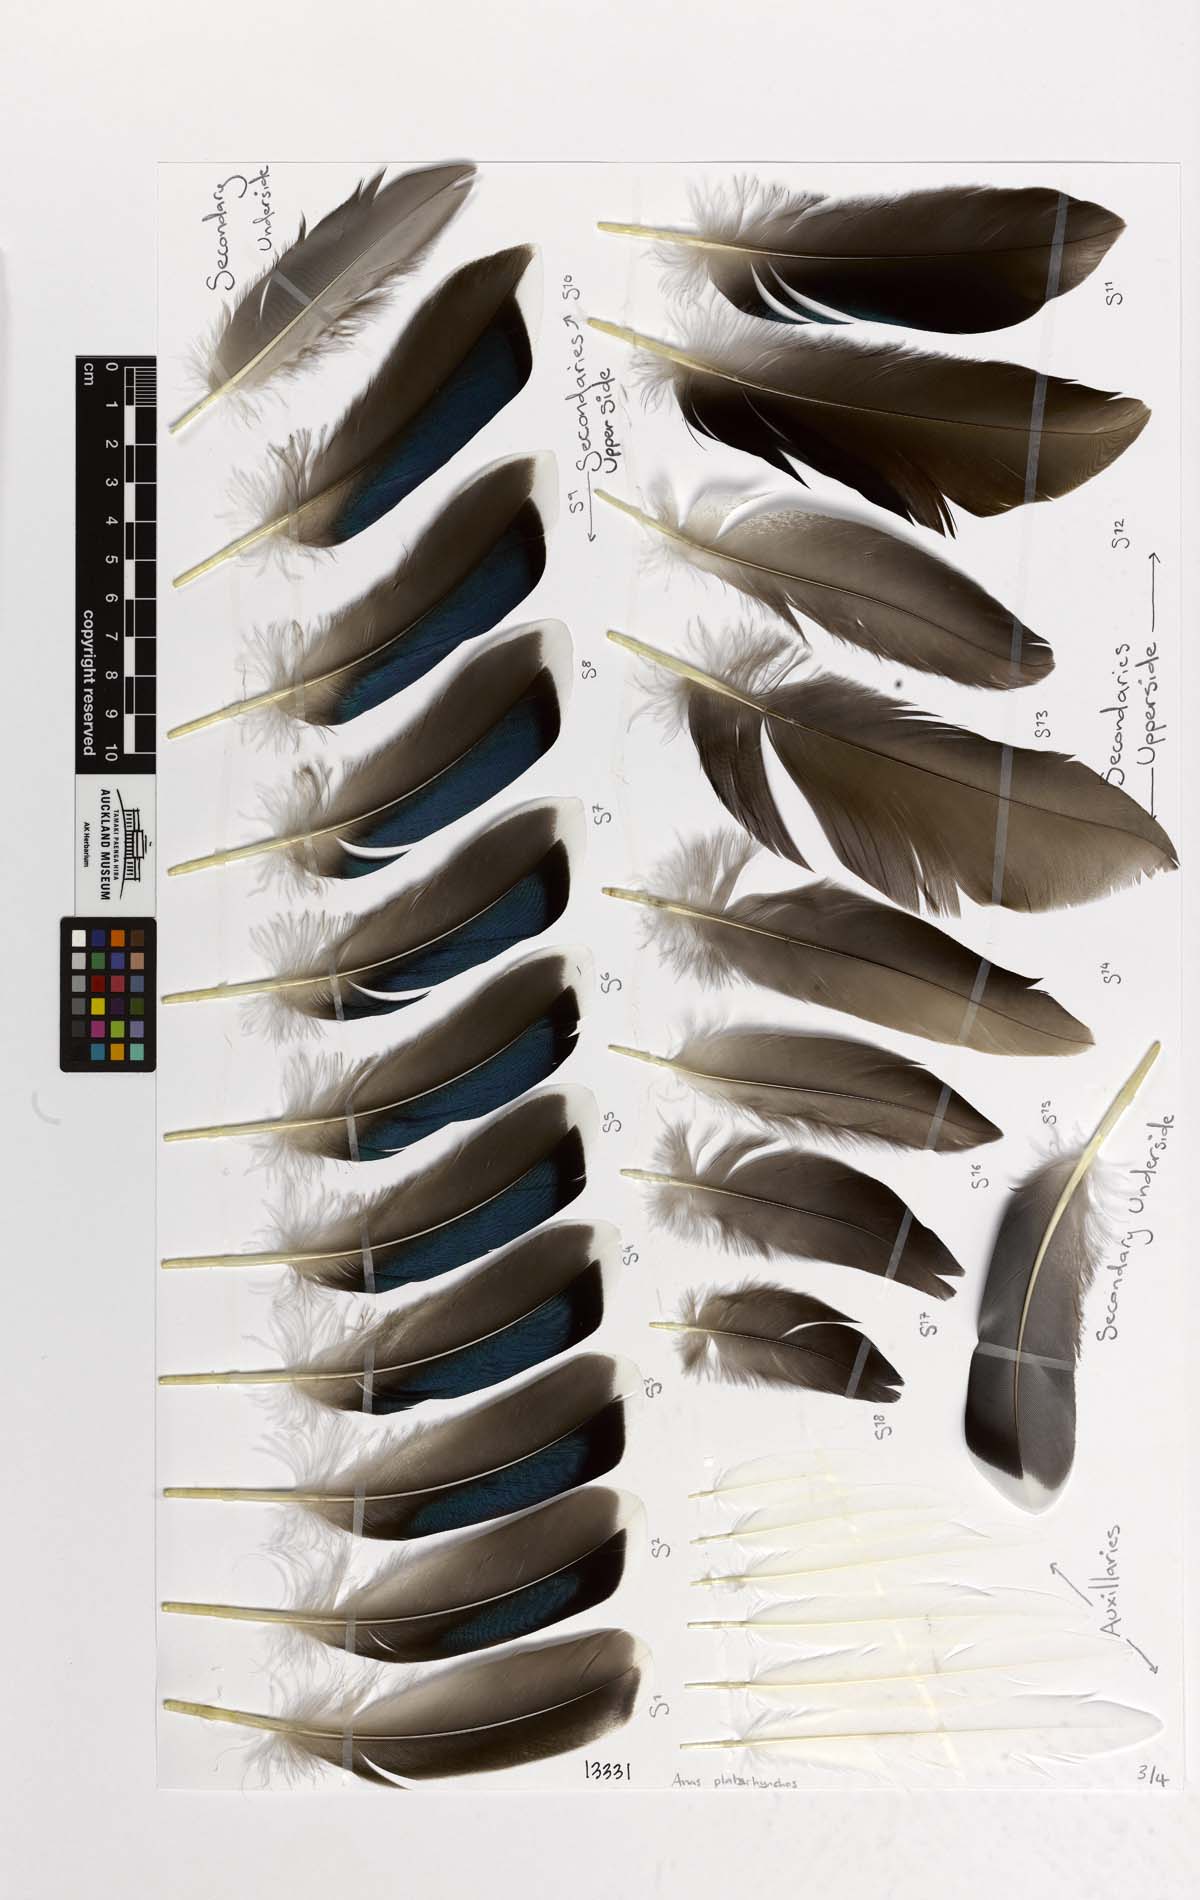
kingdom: Animalia
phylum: Chordata
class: Aves
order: Anseriformes
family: Anatidae
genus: Anas
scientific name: Anas platyrhynchos
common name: Mallard
